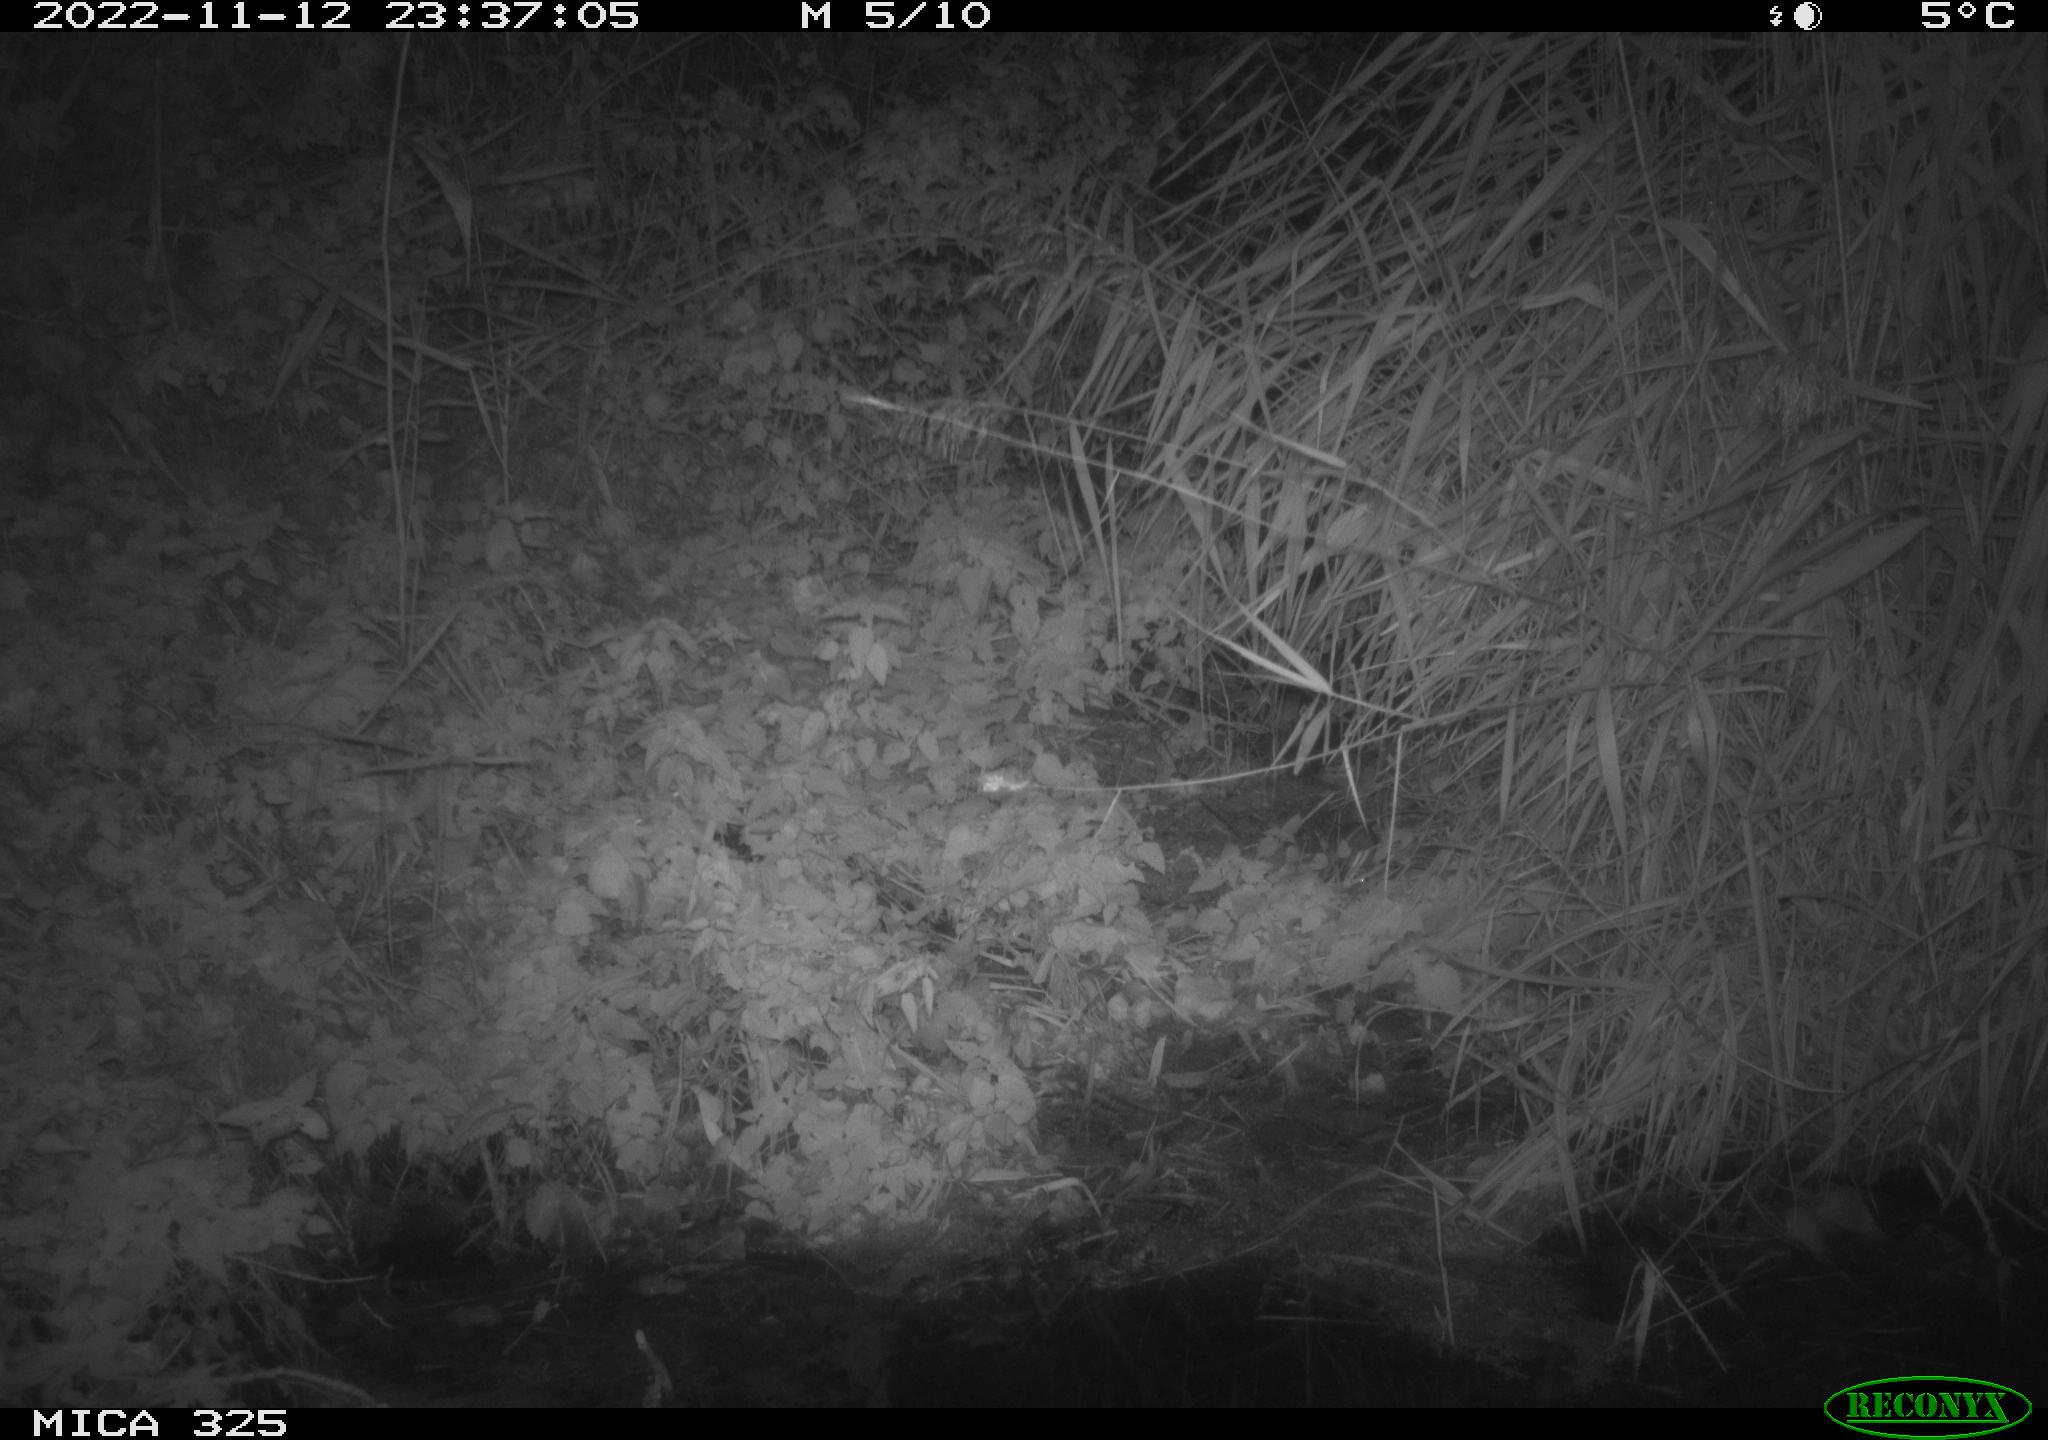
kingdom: Animalia
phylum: Chordata
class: Mammalia
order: Rodentia
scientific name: Rodentia
